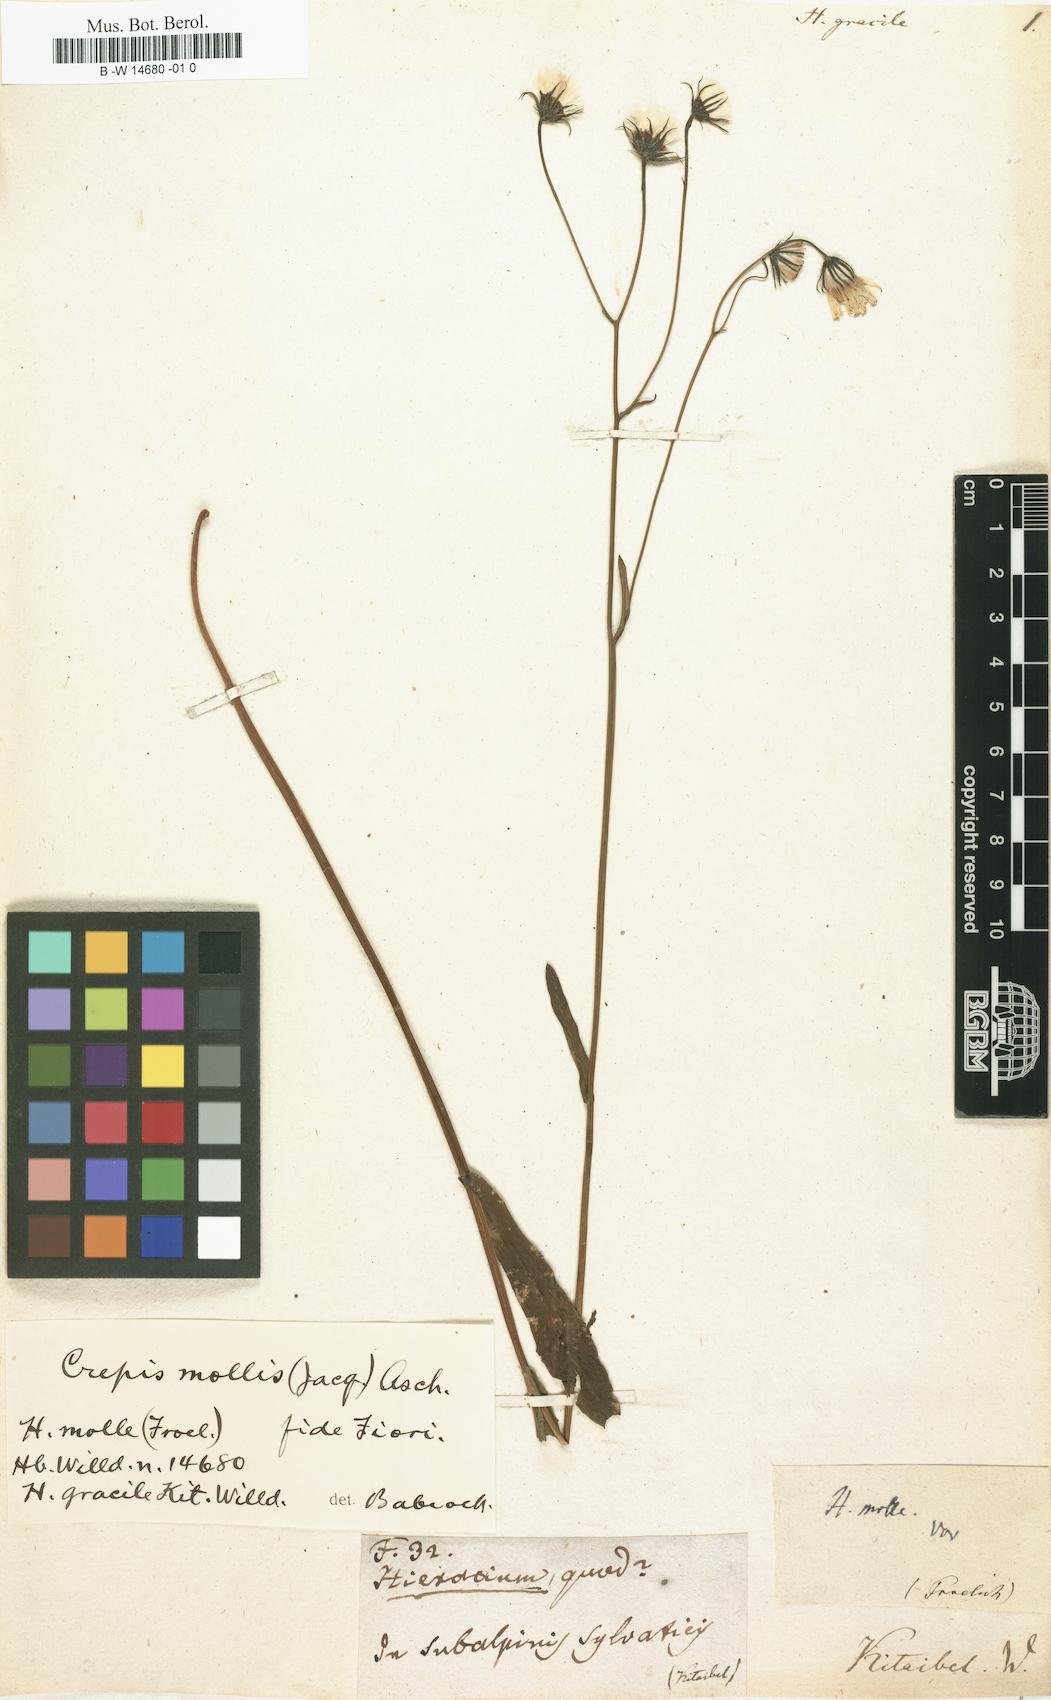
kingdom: Plantae
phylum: Tracheophyta
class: Magnoliopsida
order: Asterales
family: Asteraceae
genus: Hieracium
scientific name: Hieracium
